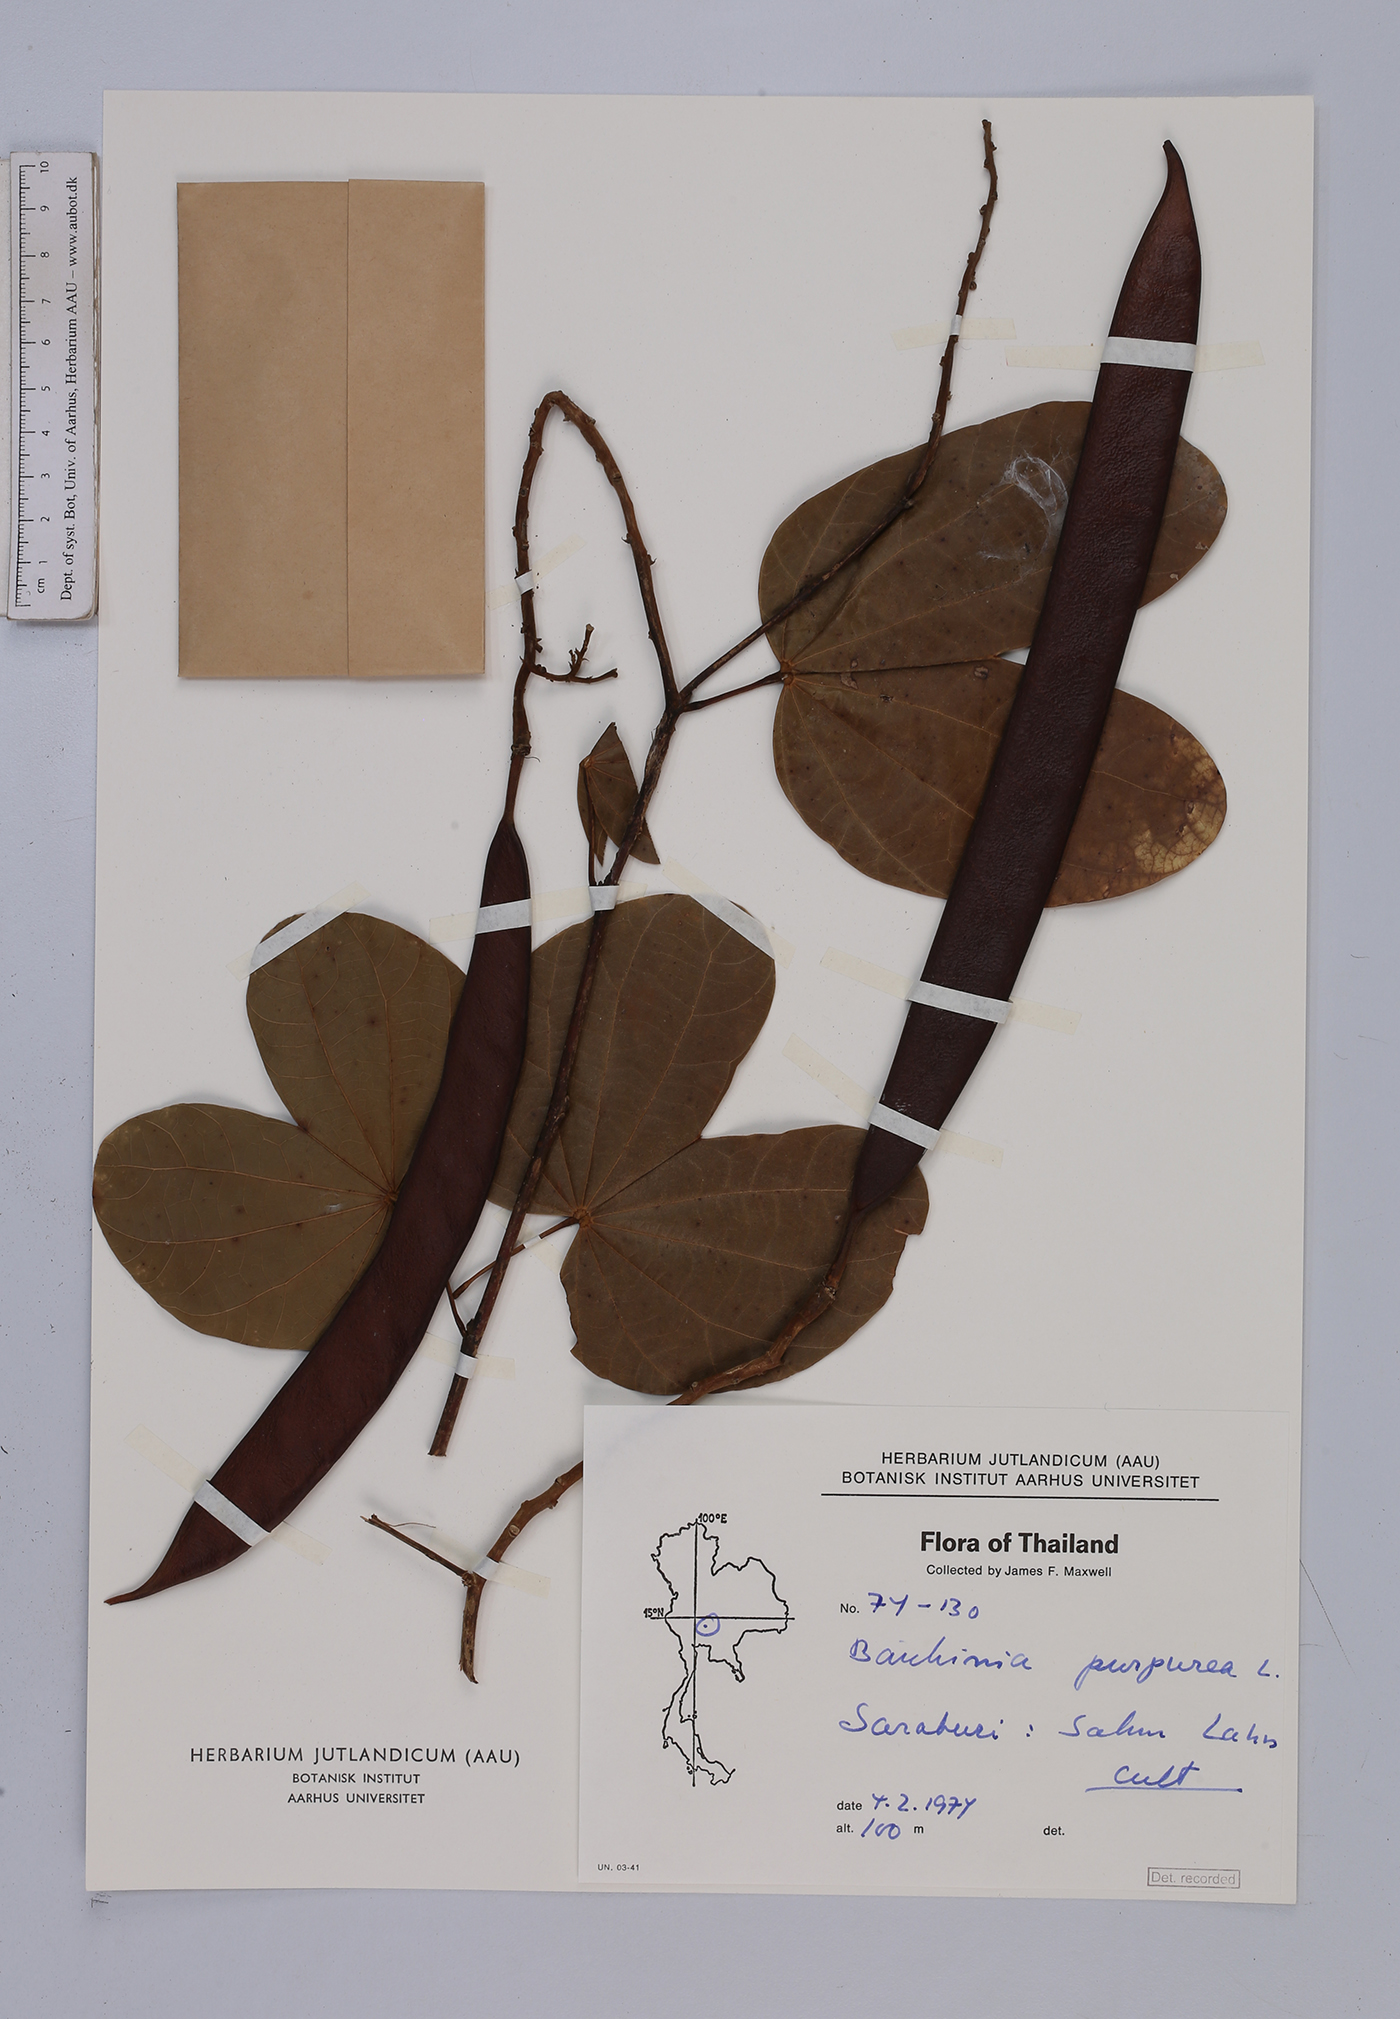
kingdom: Plantae
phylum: Tracheophyta
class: Magnoliopsida
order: Fabales
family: Fabaceae
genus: Bauhinia
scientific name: Bauhinia purpurea
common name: Butterfly-tree
